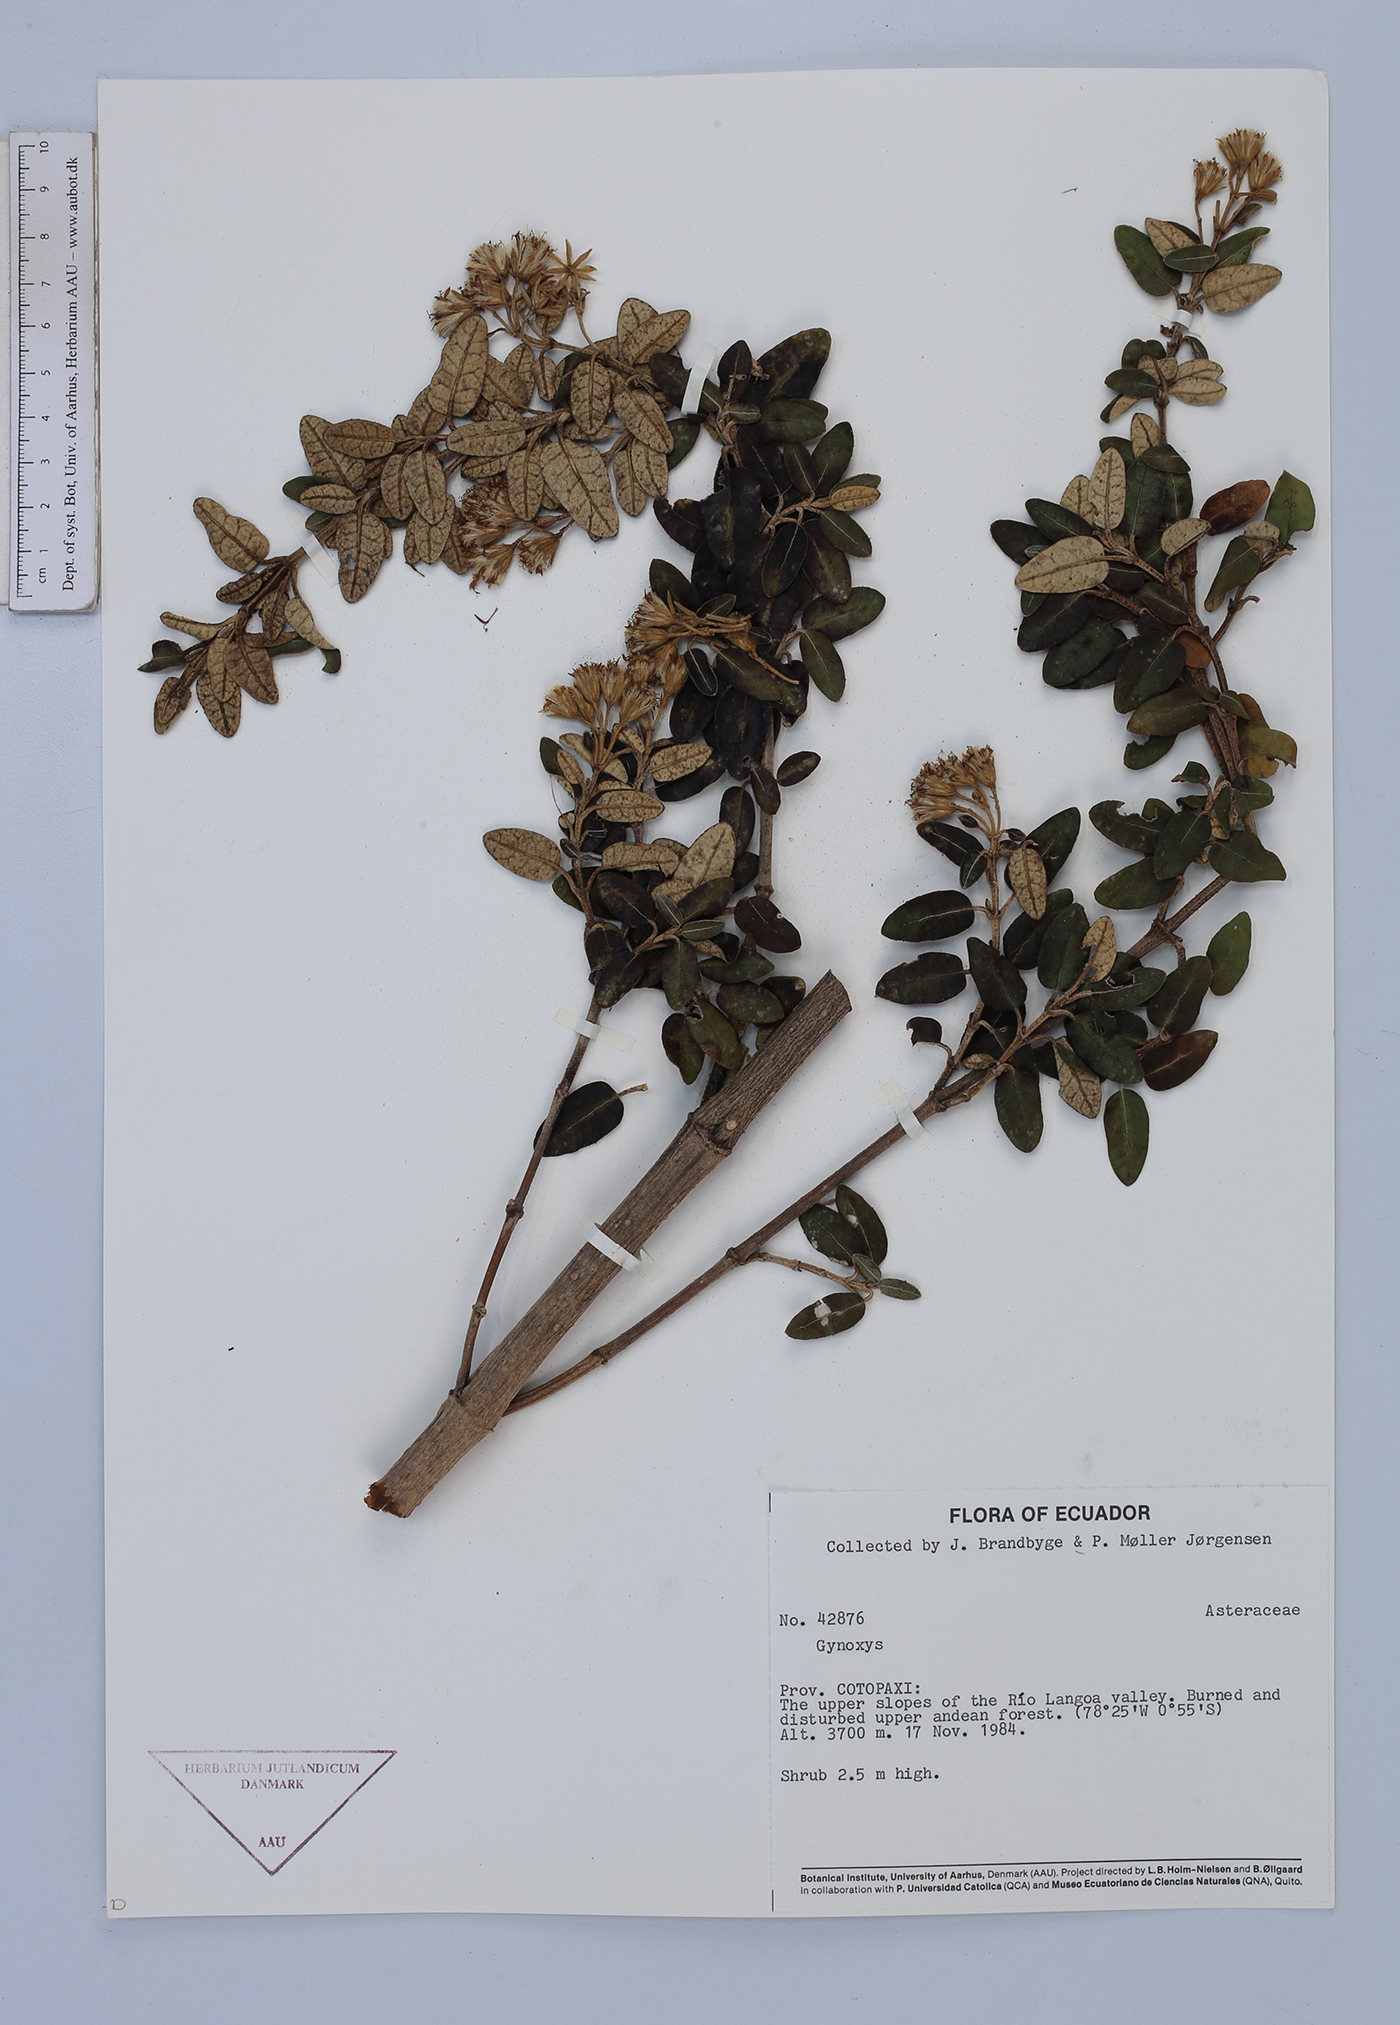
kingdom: Plantae
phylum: Tracheophyta
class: Magnoliopsida
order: Asterales
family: Asteraceae
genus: Gynoxys
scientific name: Gynoxys buxifolia
